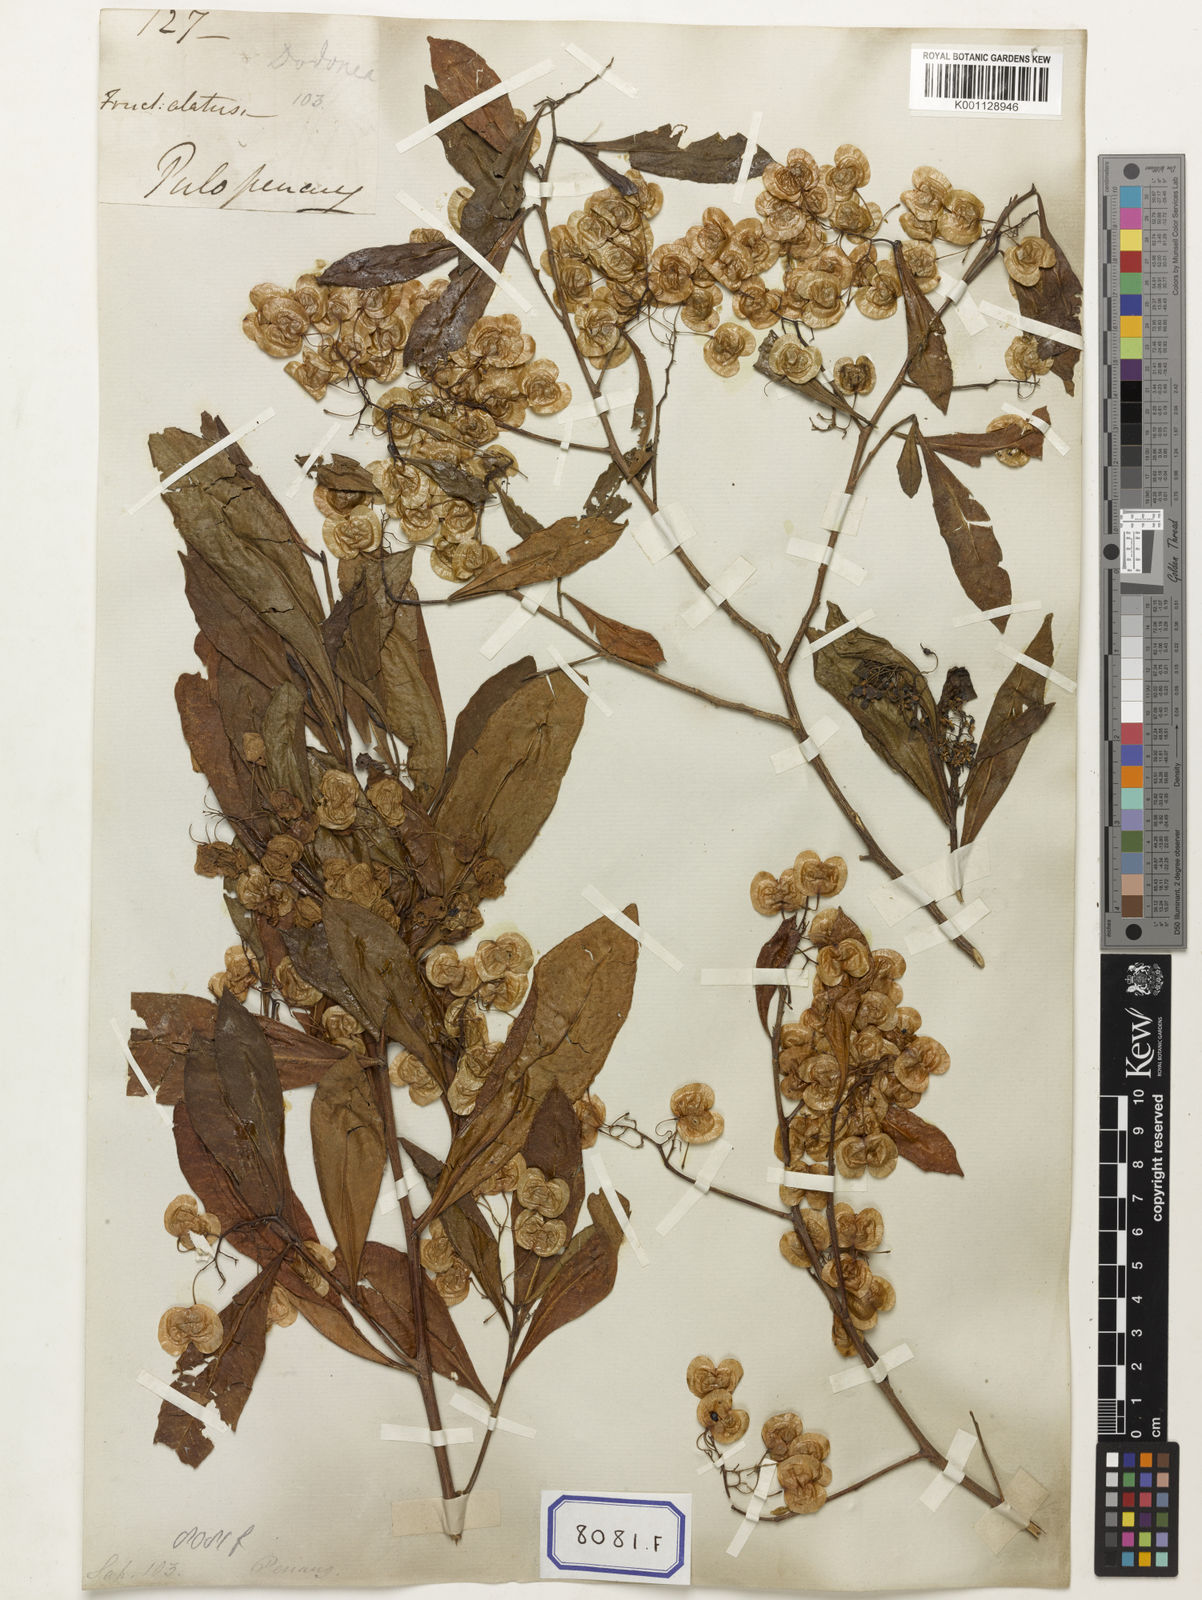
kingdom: Plantae
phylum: Tracheophyta
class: Magnoliopsida
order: Sapindales
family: Sapindaceae
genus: Dodonaea
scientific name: Dodonaea
